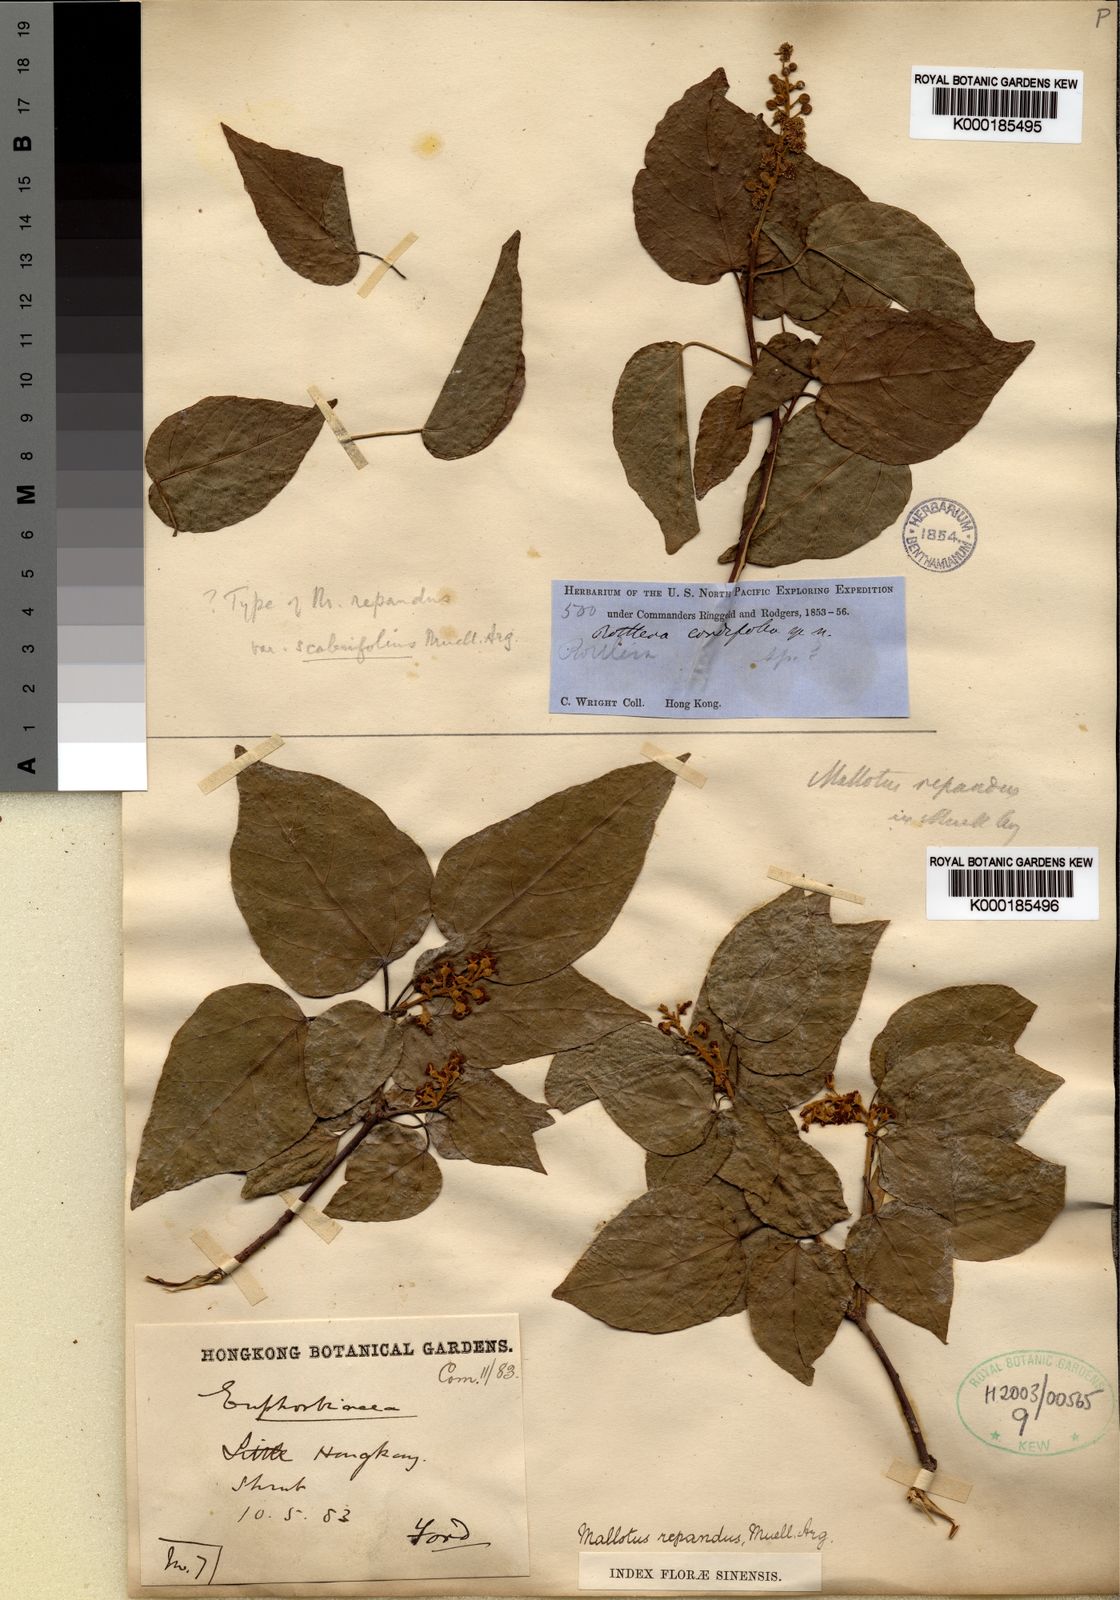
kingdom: Plantae
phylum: Tracheophyta
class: Magnoliopsida
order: Malpighiales
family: Euphorbiaceae
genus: Mallotus
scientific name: Mallotus repandus
